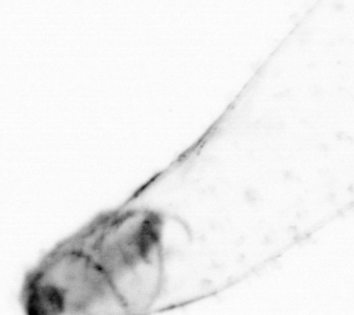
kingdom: Animalia
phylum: Chaetognatha
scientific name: Chaetognatha
